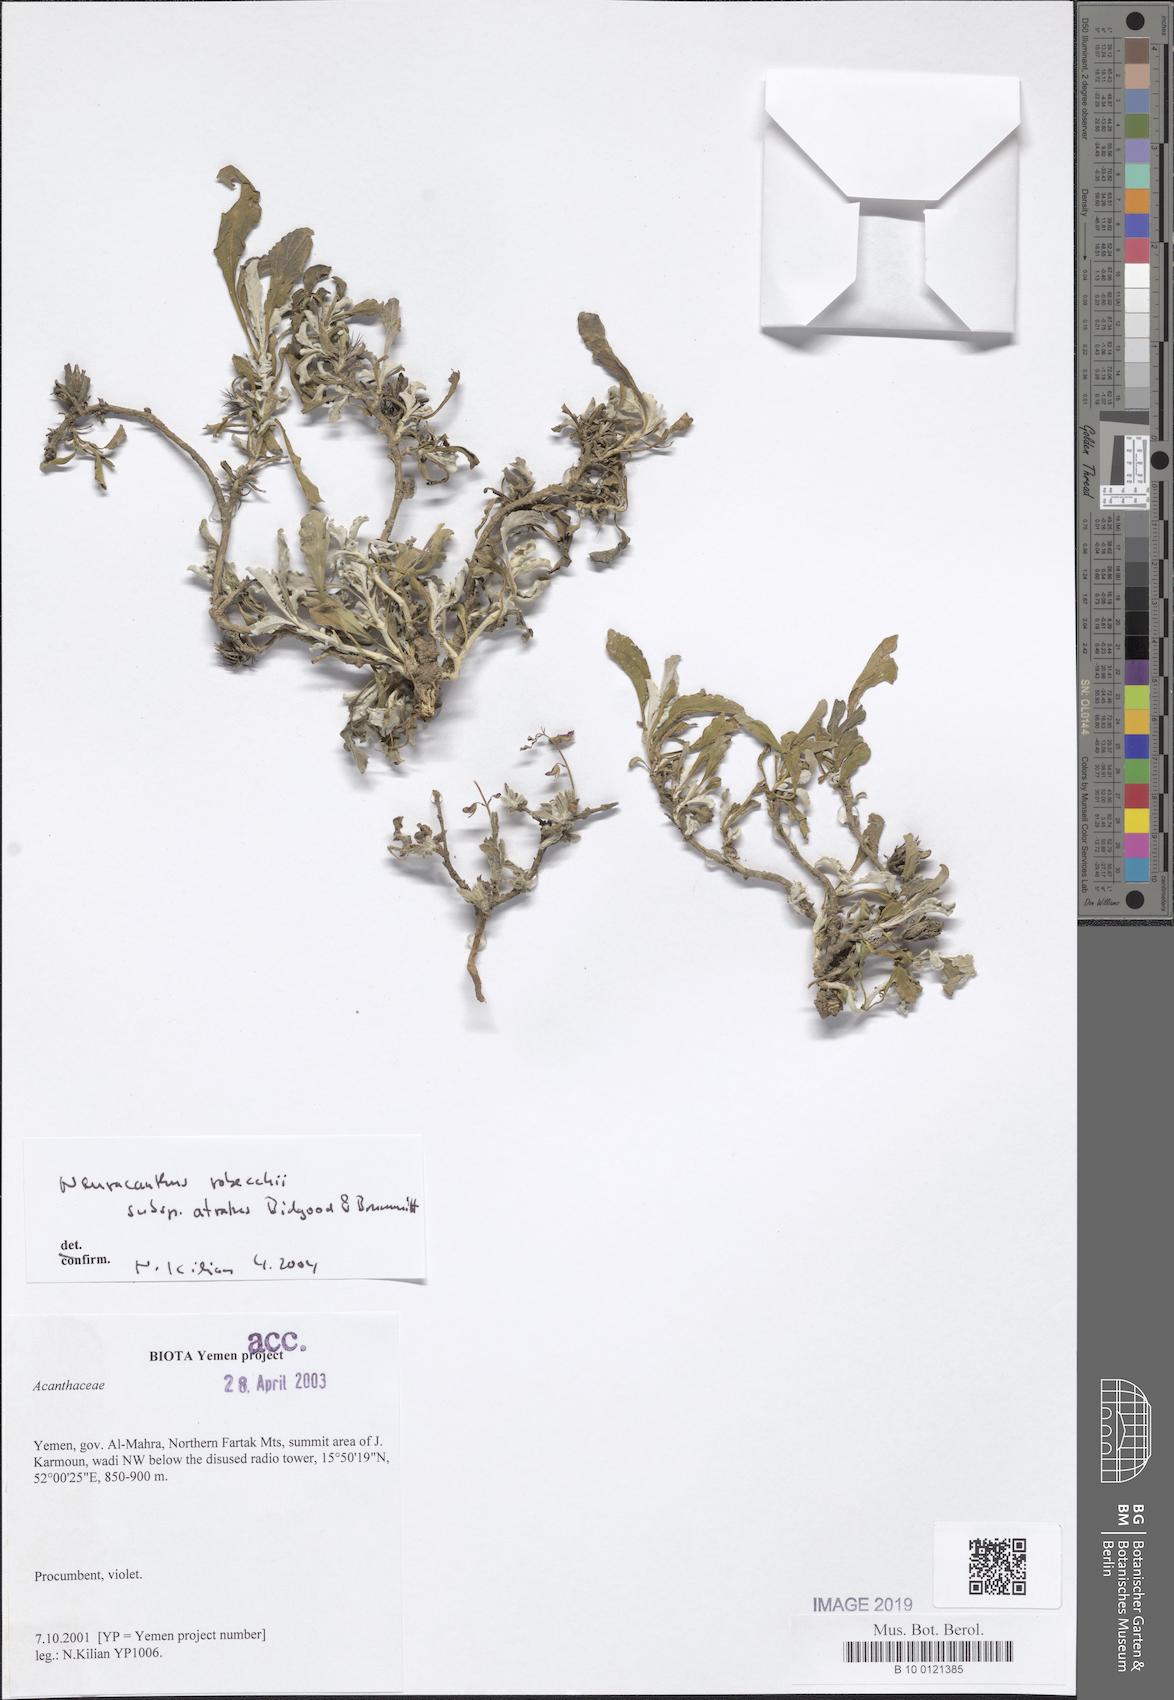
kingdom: Plantae
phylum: Tracheophyta
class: Magnoliopsida
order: Lamiales
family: Acanthaceae
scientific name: Acanthaceae
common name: Acanthaceae
